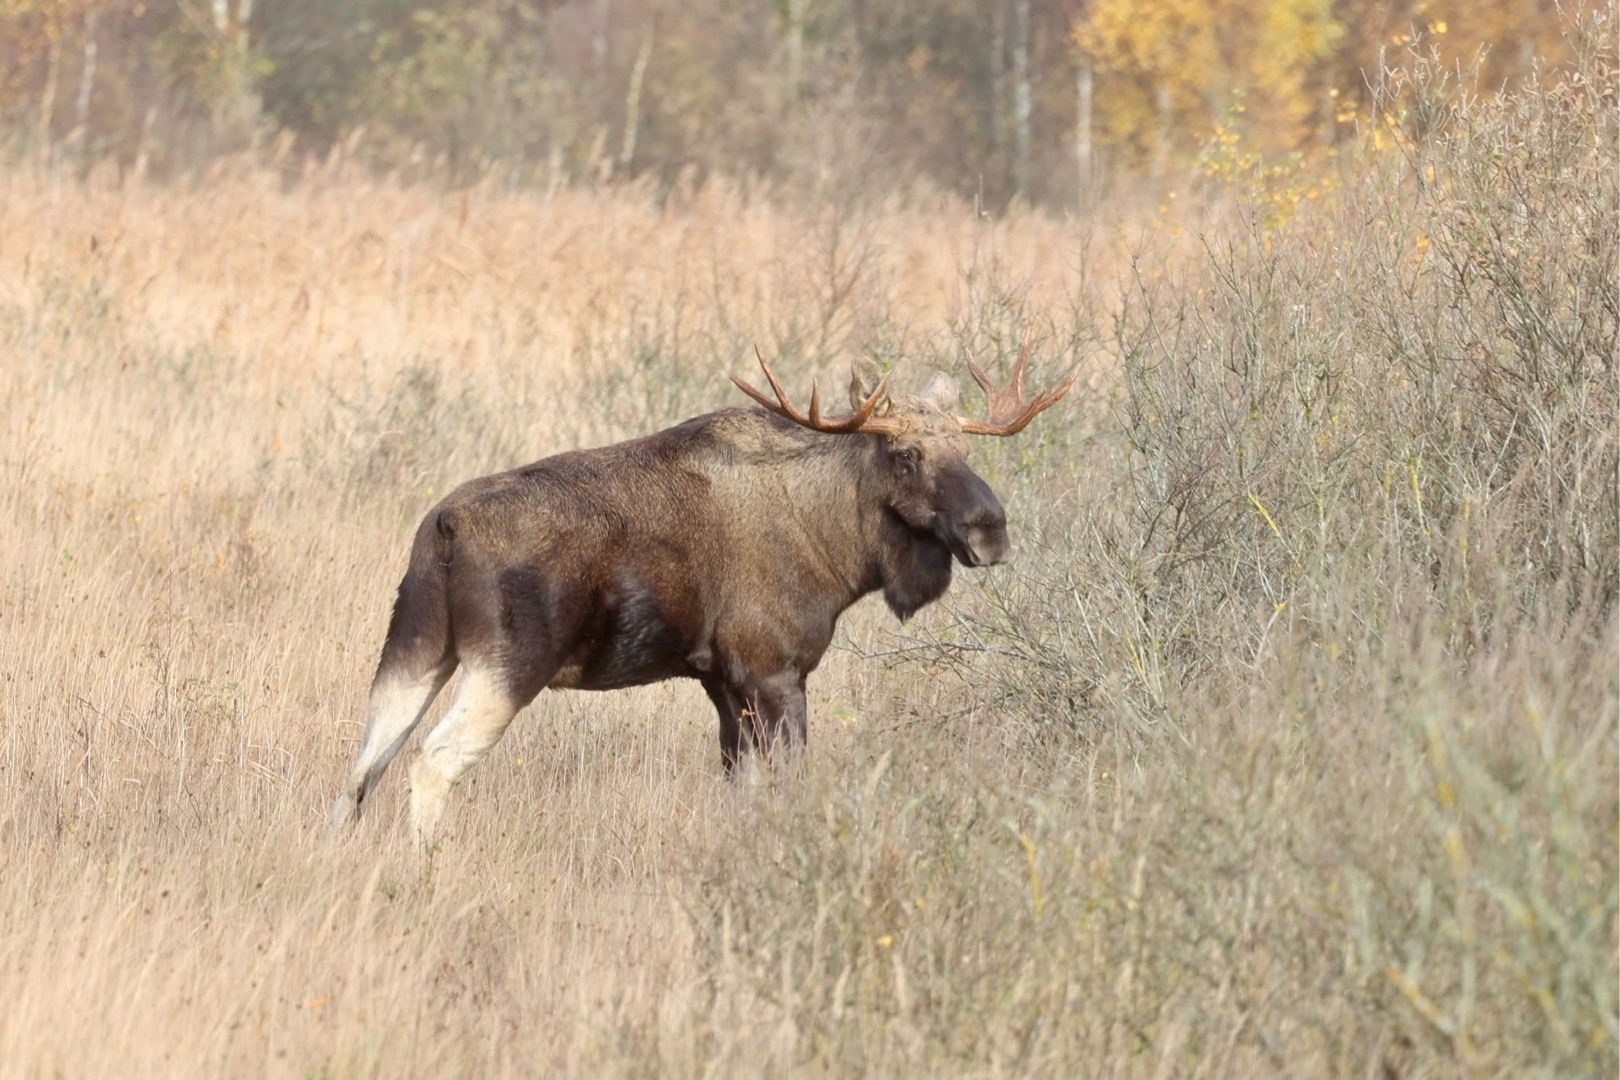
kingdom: Animalia
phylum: Chordata
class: Mammalia
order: Artiodactyla
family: Cervidae
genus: Alces
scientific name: Alces alces
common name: Elg
